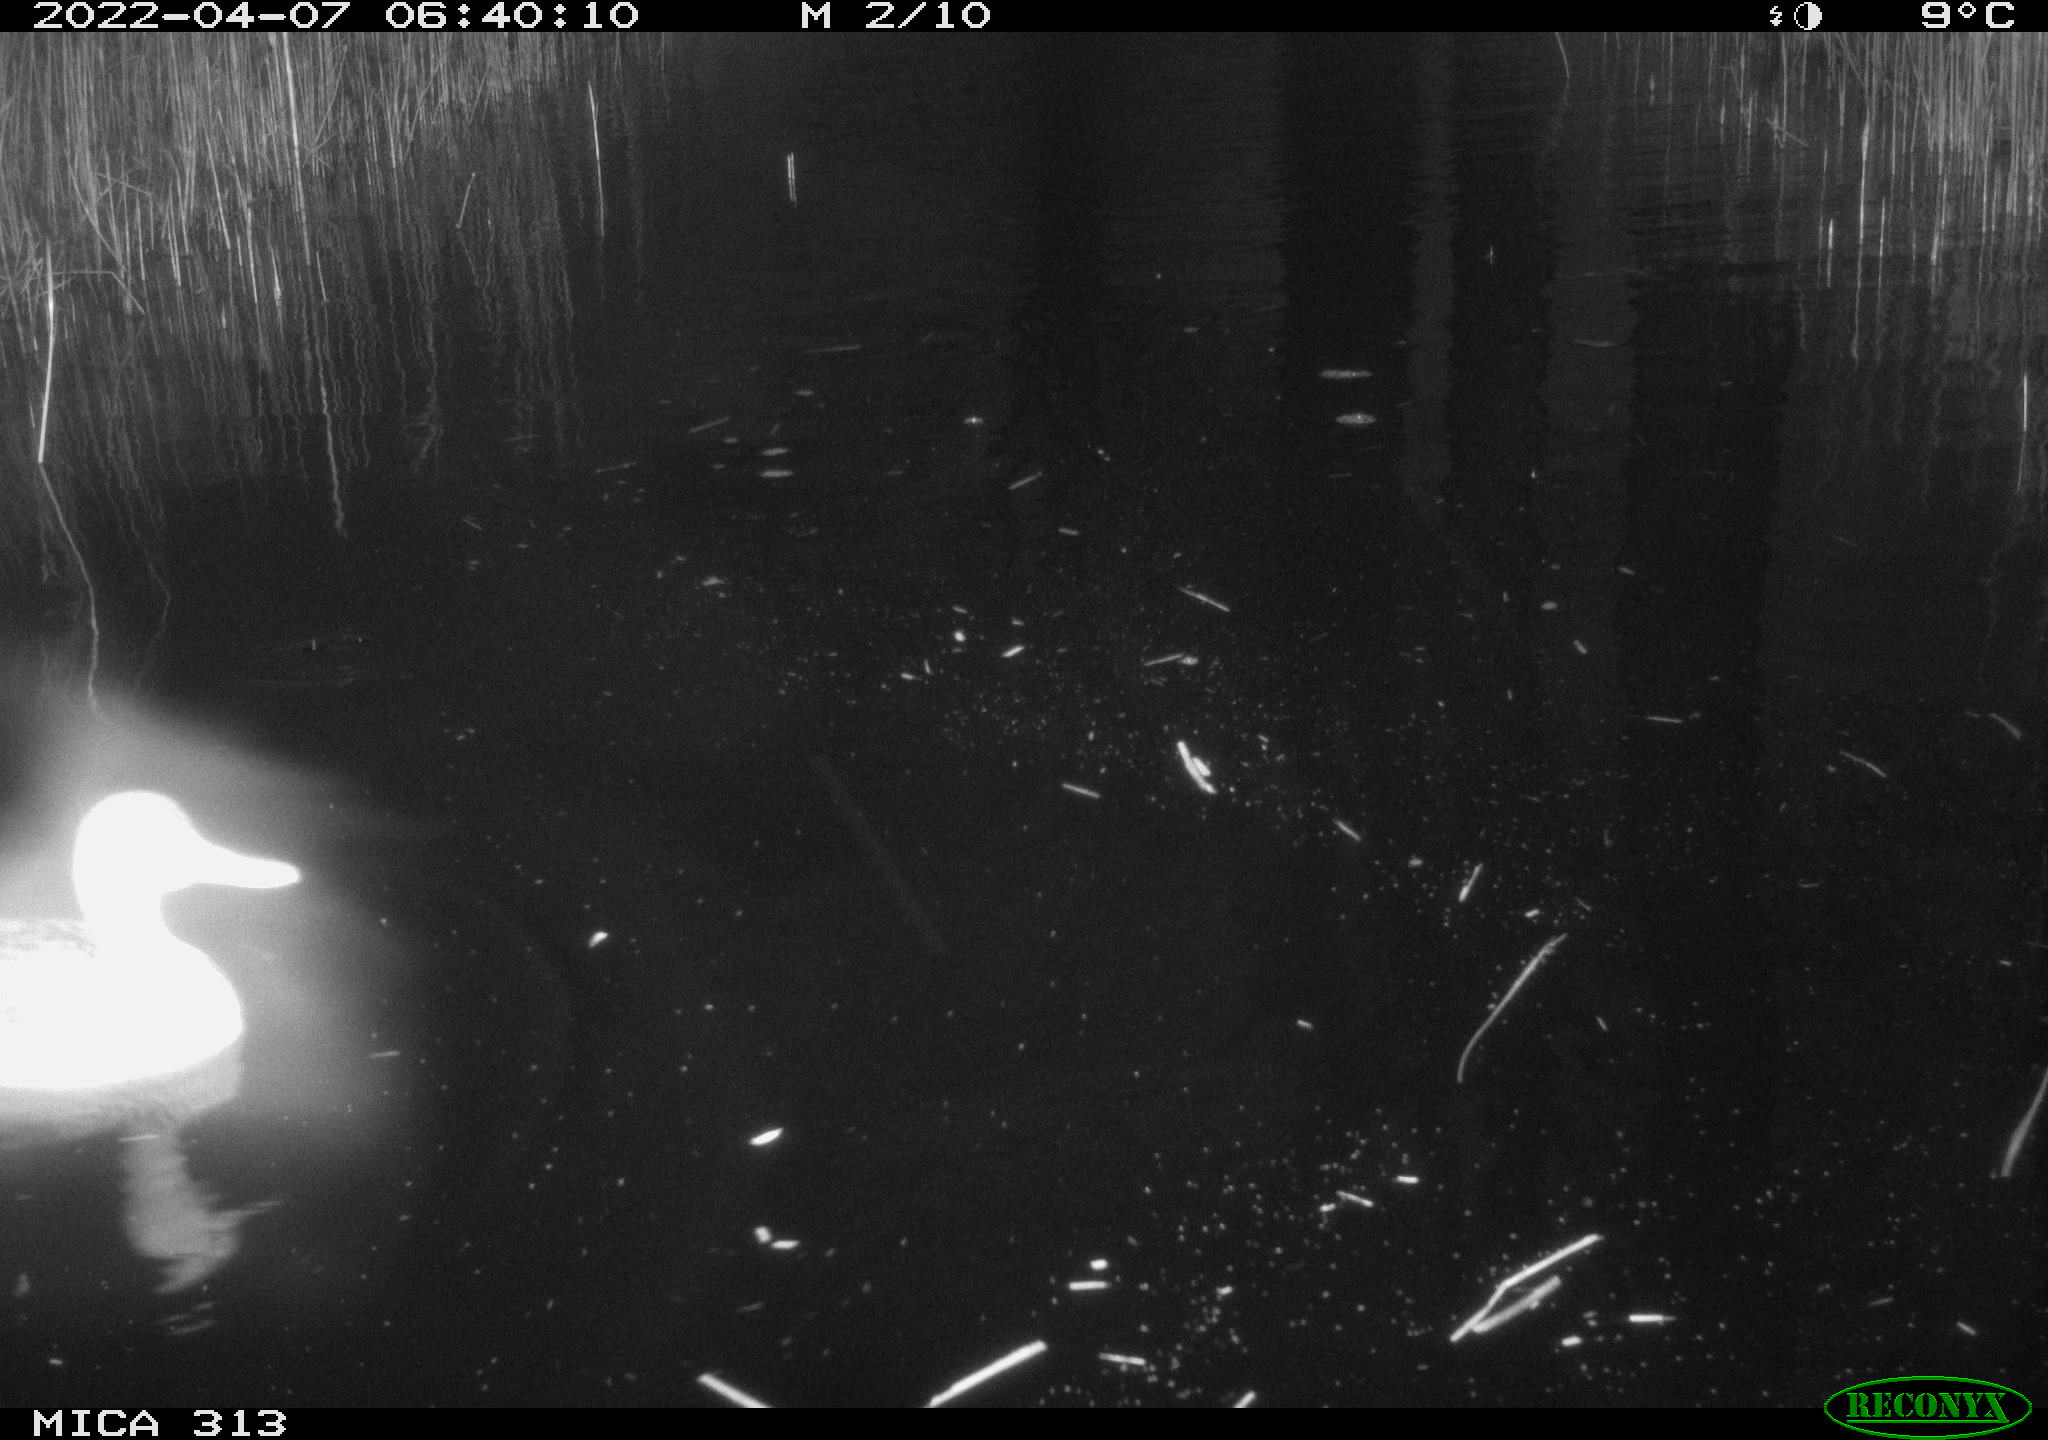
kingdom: Animalia
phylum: Chordata
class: Aves
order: Anseriformes
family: Anatidae
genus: Anas
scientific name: Anas platyrhynchos
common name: Mallard
